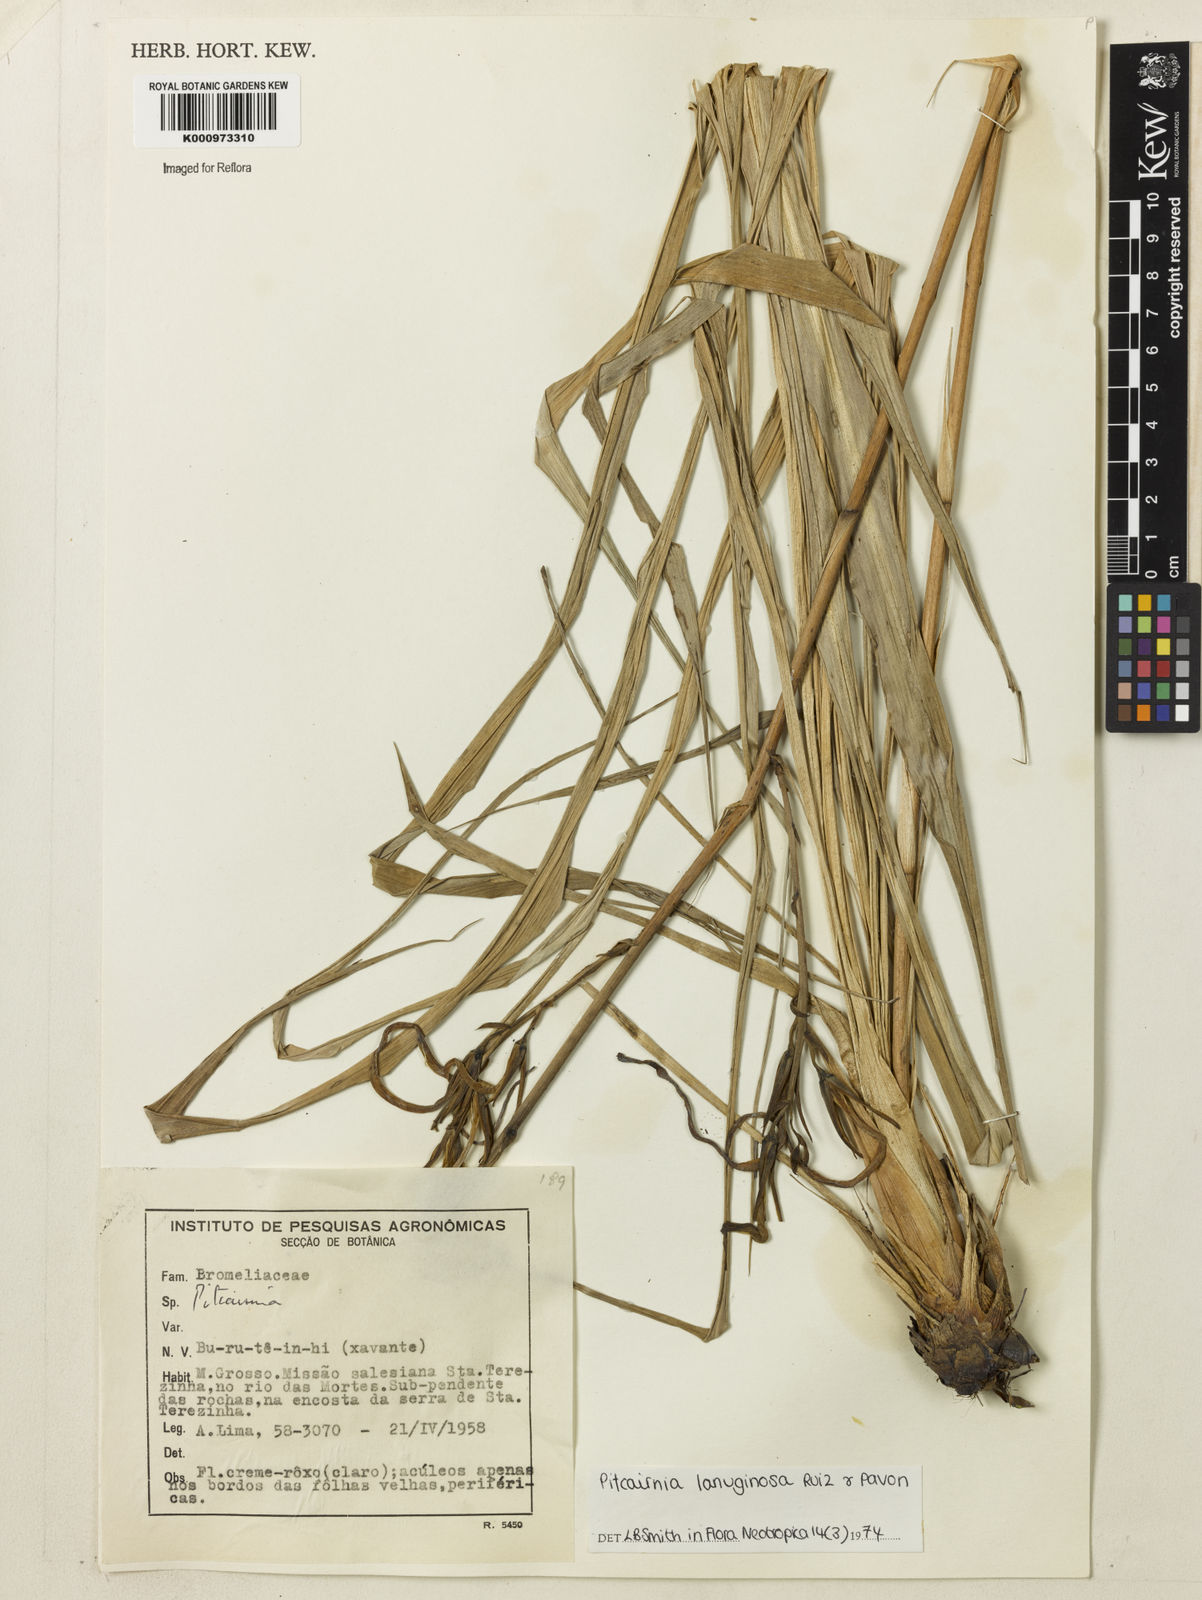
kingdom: Plantae
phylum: Tracheophyta
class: Liliopsida
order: Poales
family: Bromeliaceae
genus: Pitcairnia
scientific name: Pitcairnia lanuginosa
